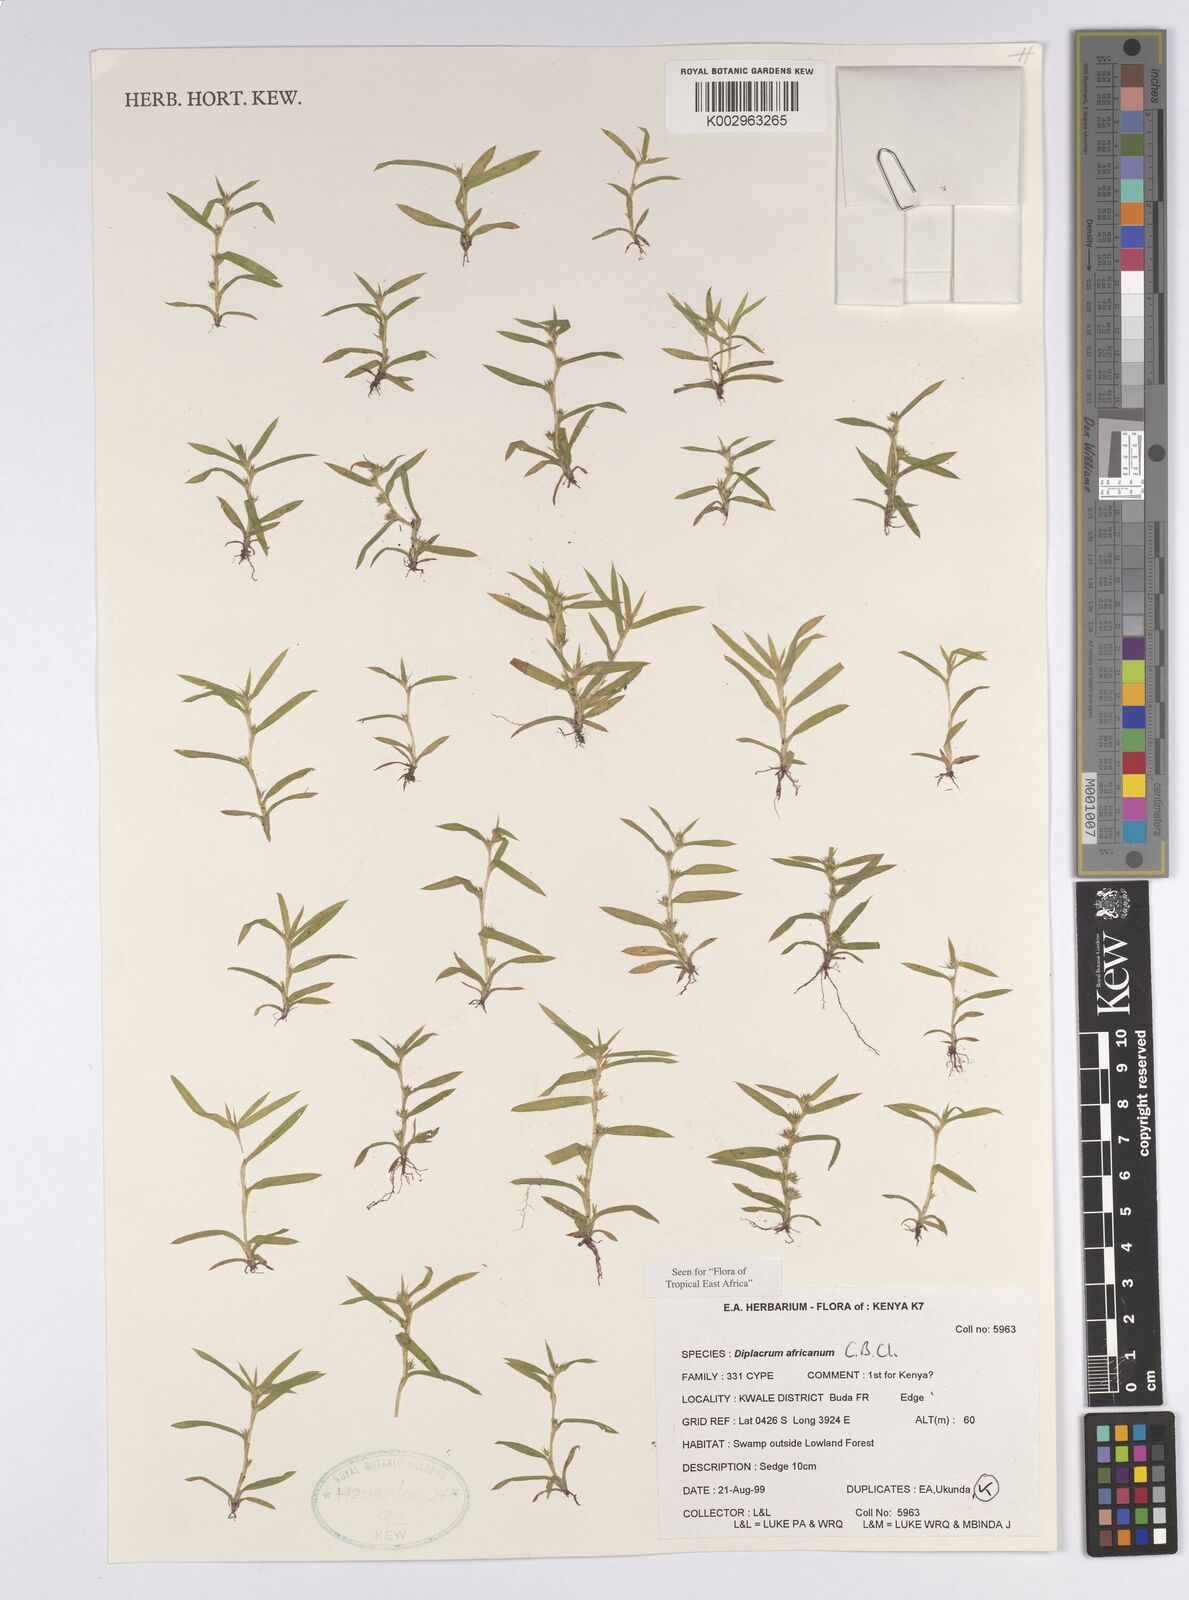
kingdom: Plantae
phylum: Tracheophyta
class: Liliopsida
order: Poales
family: Cyperaceae
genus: Diplacrum
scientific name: Diplacrum africanum
